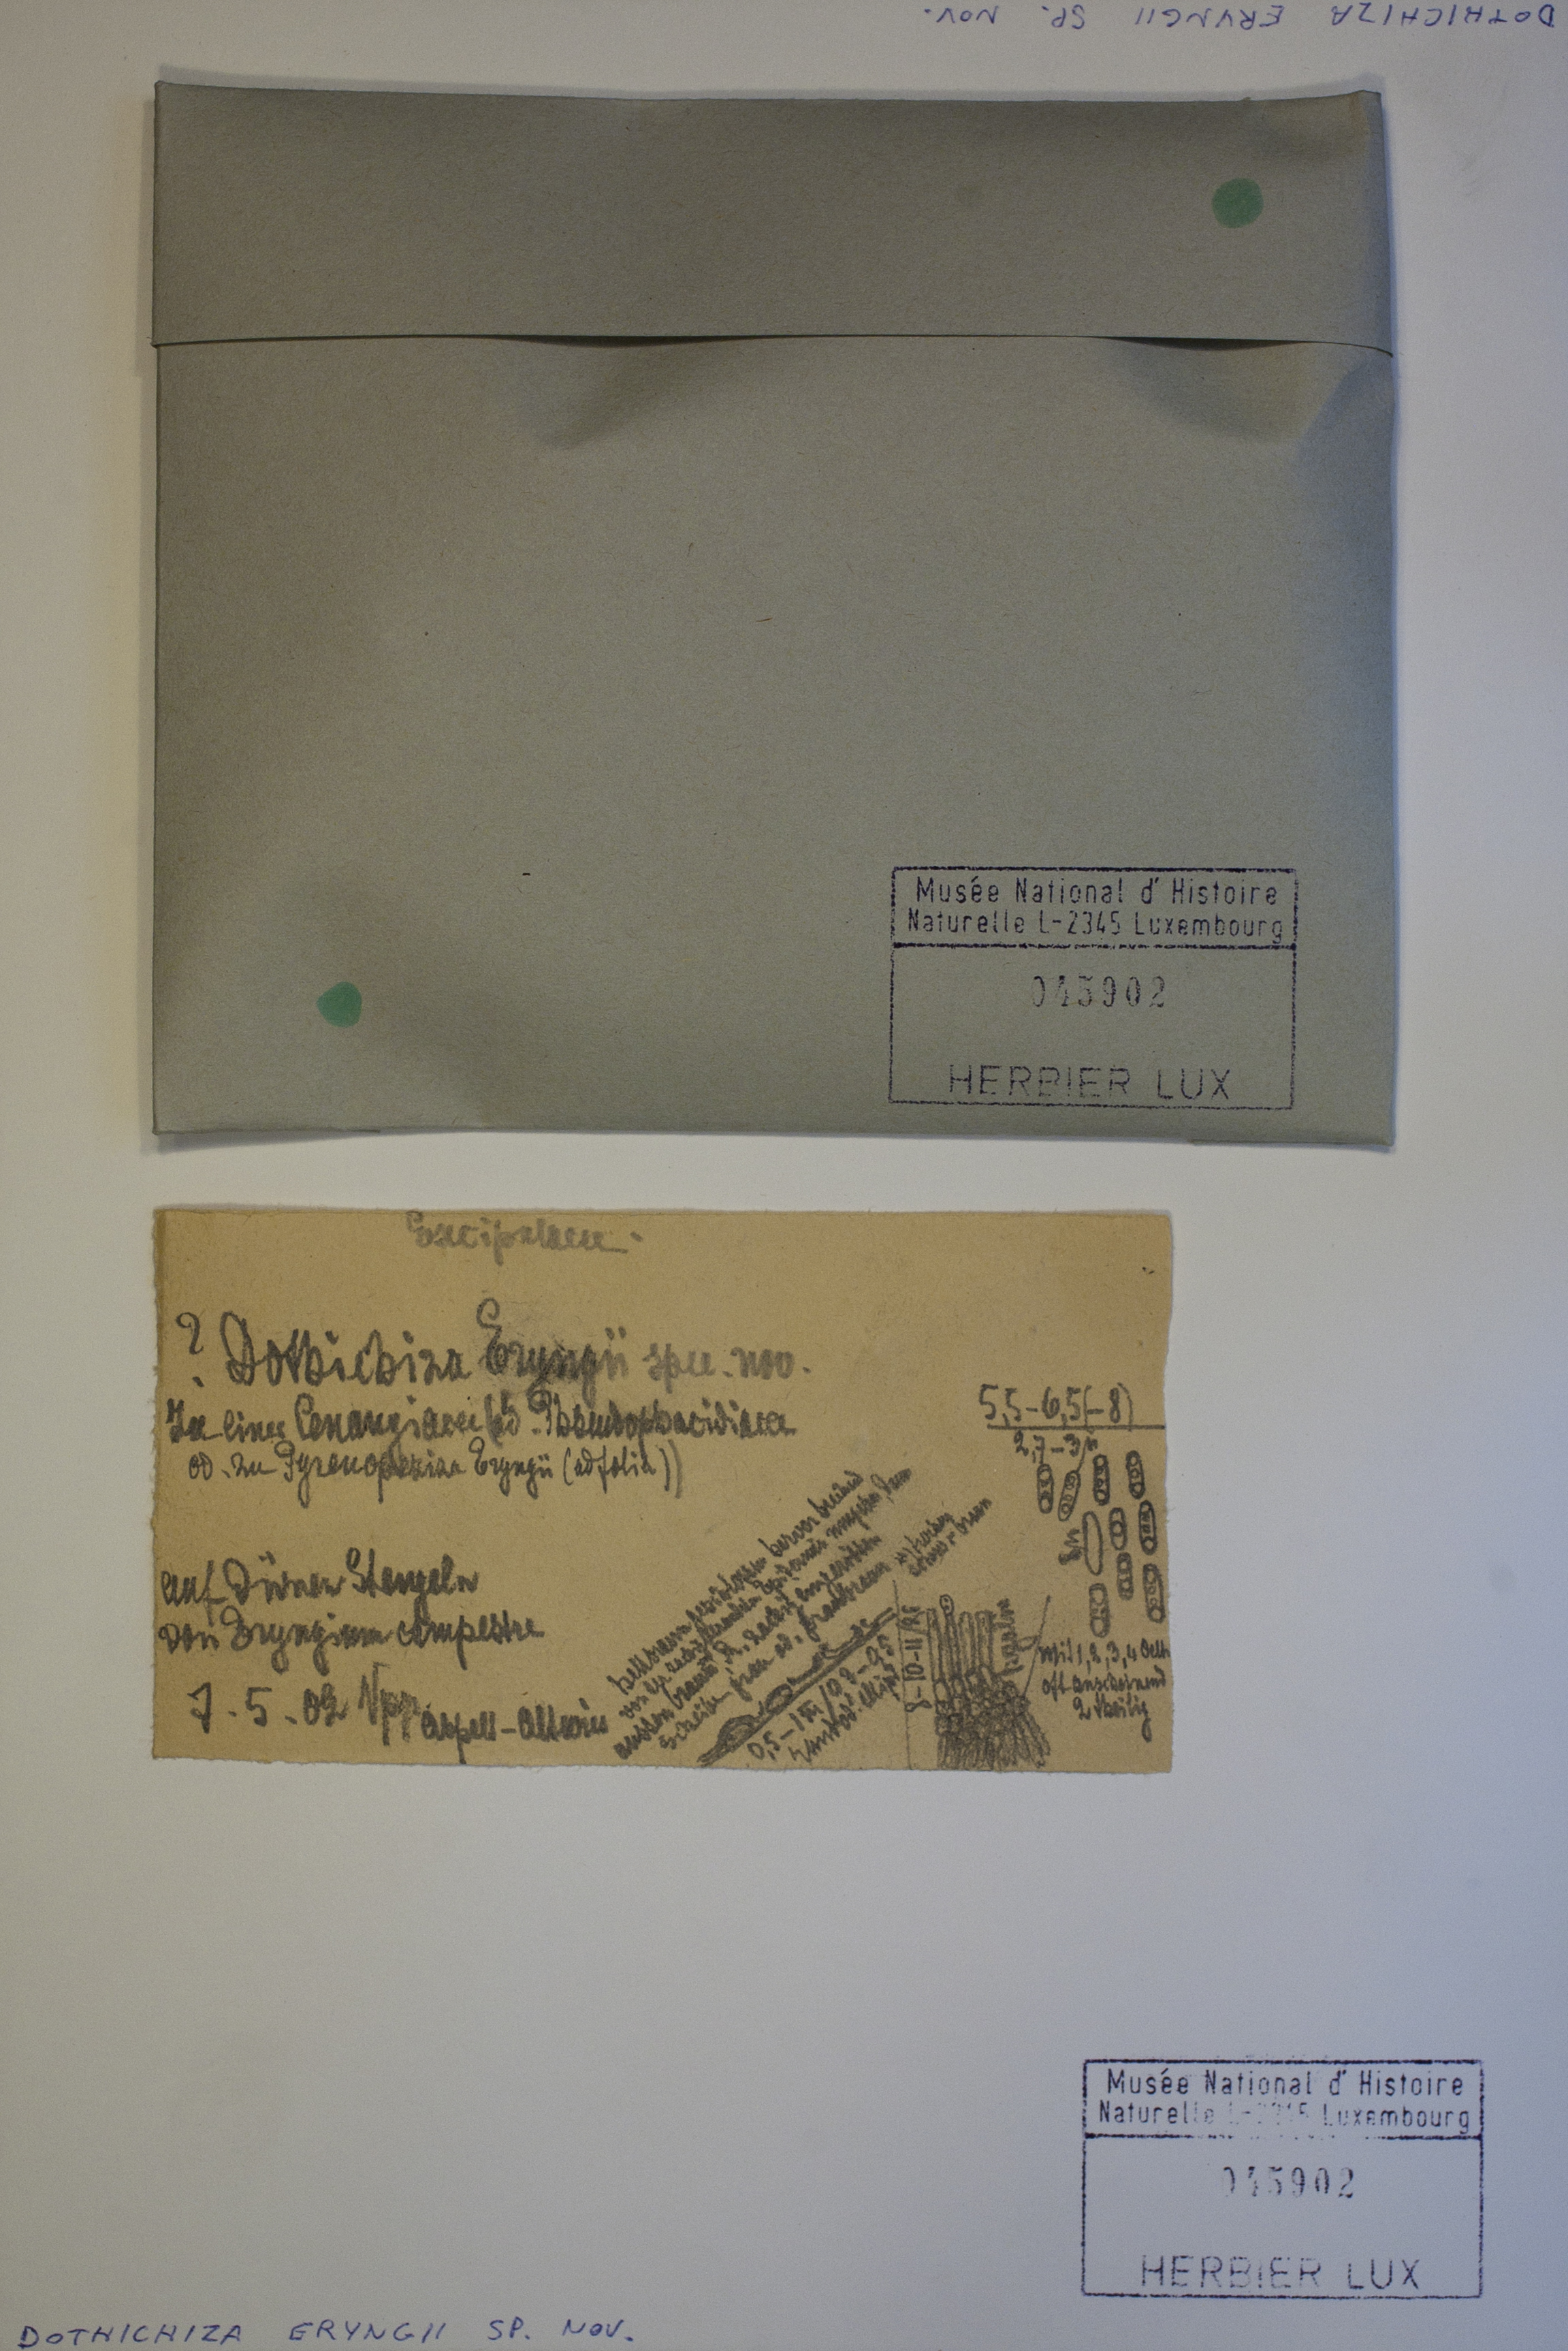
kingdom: Fungi
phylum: Ascomycota
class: Dothideomycetes
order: Dothideales
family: Dothioraceae
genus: Dothichiza
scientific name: Dothichiza
